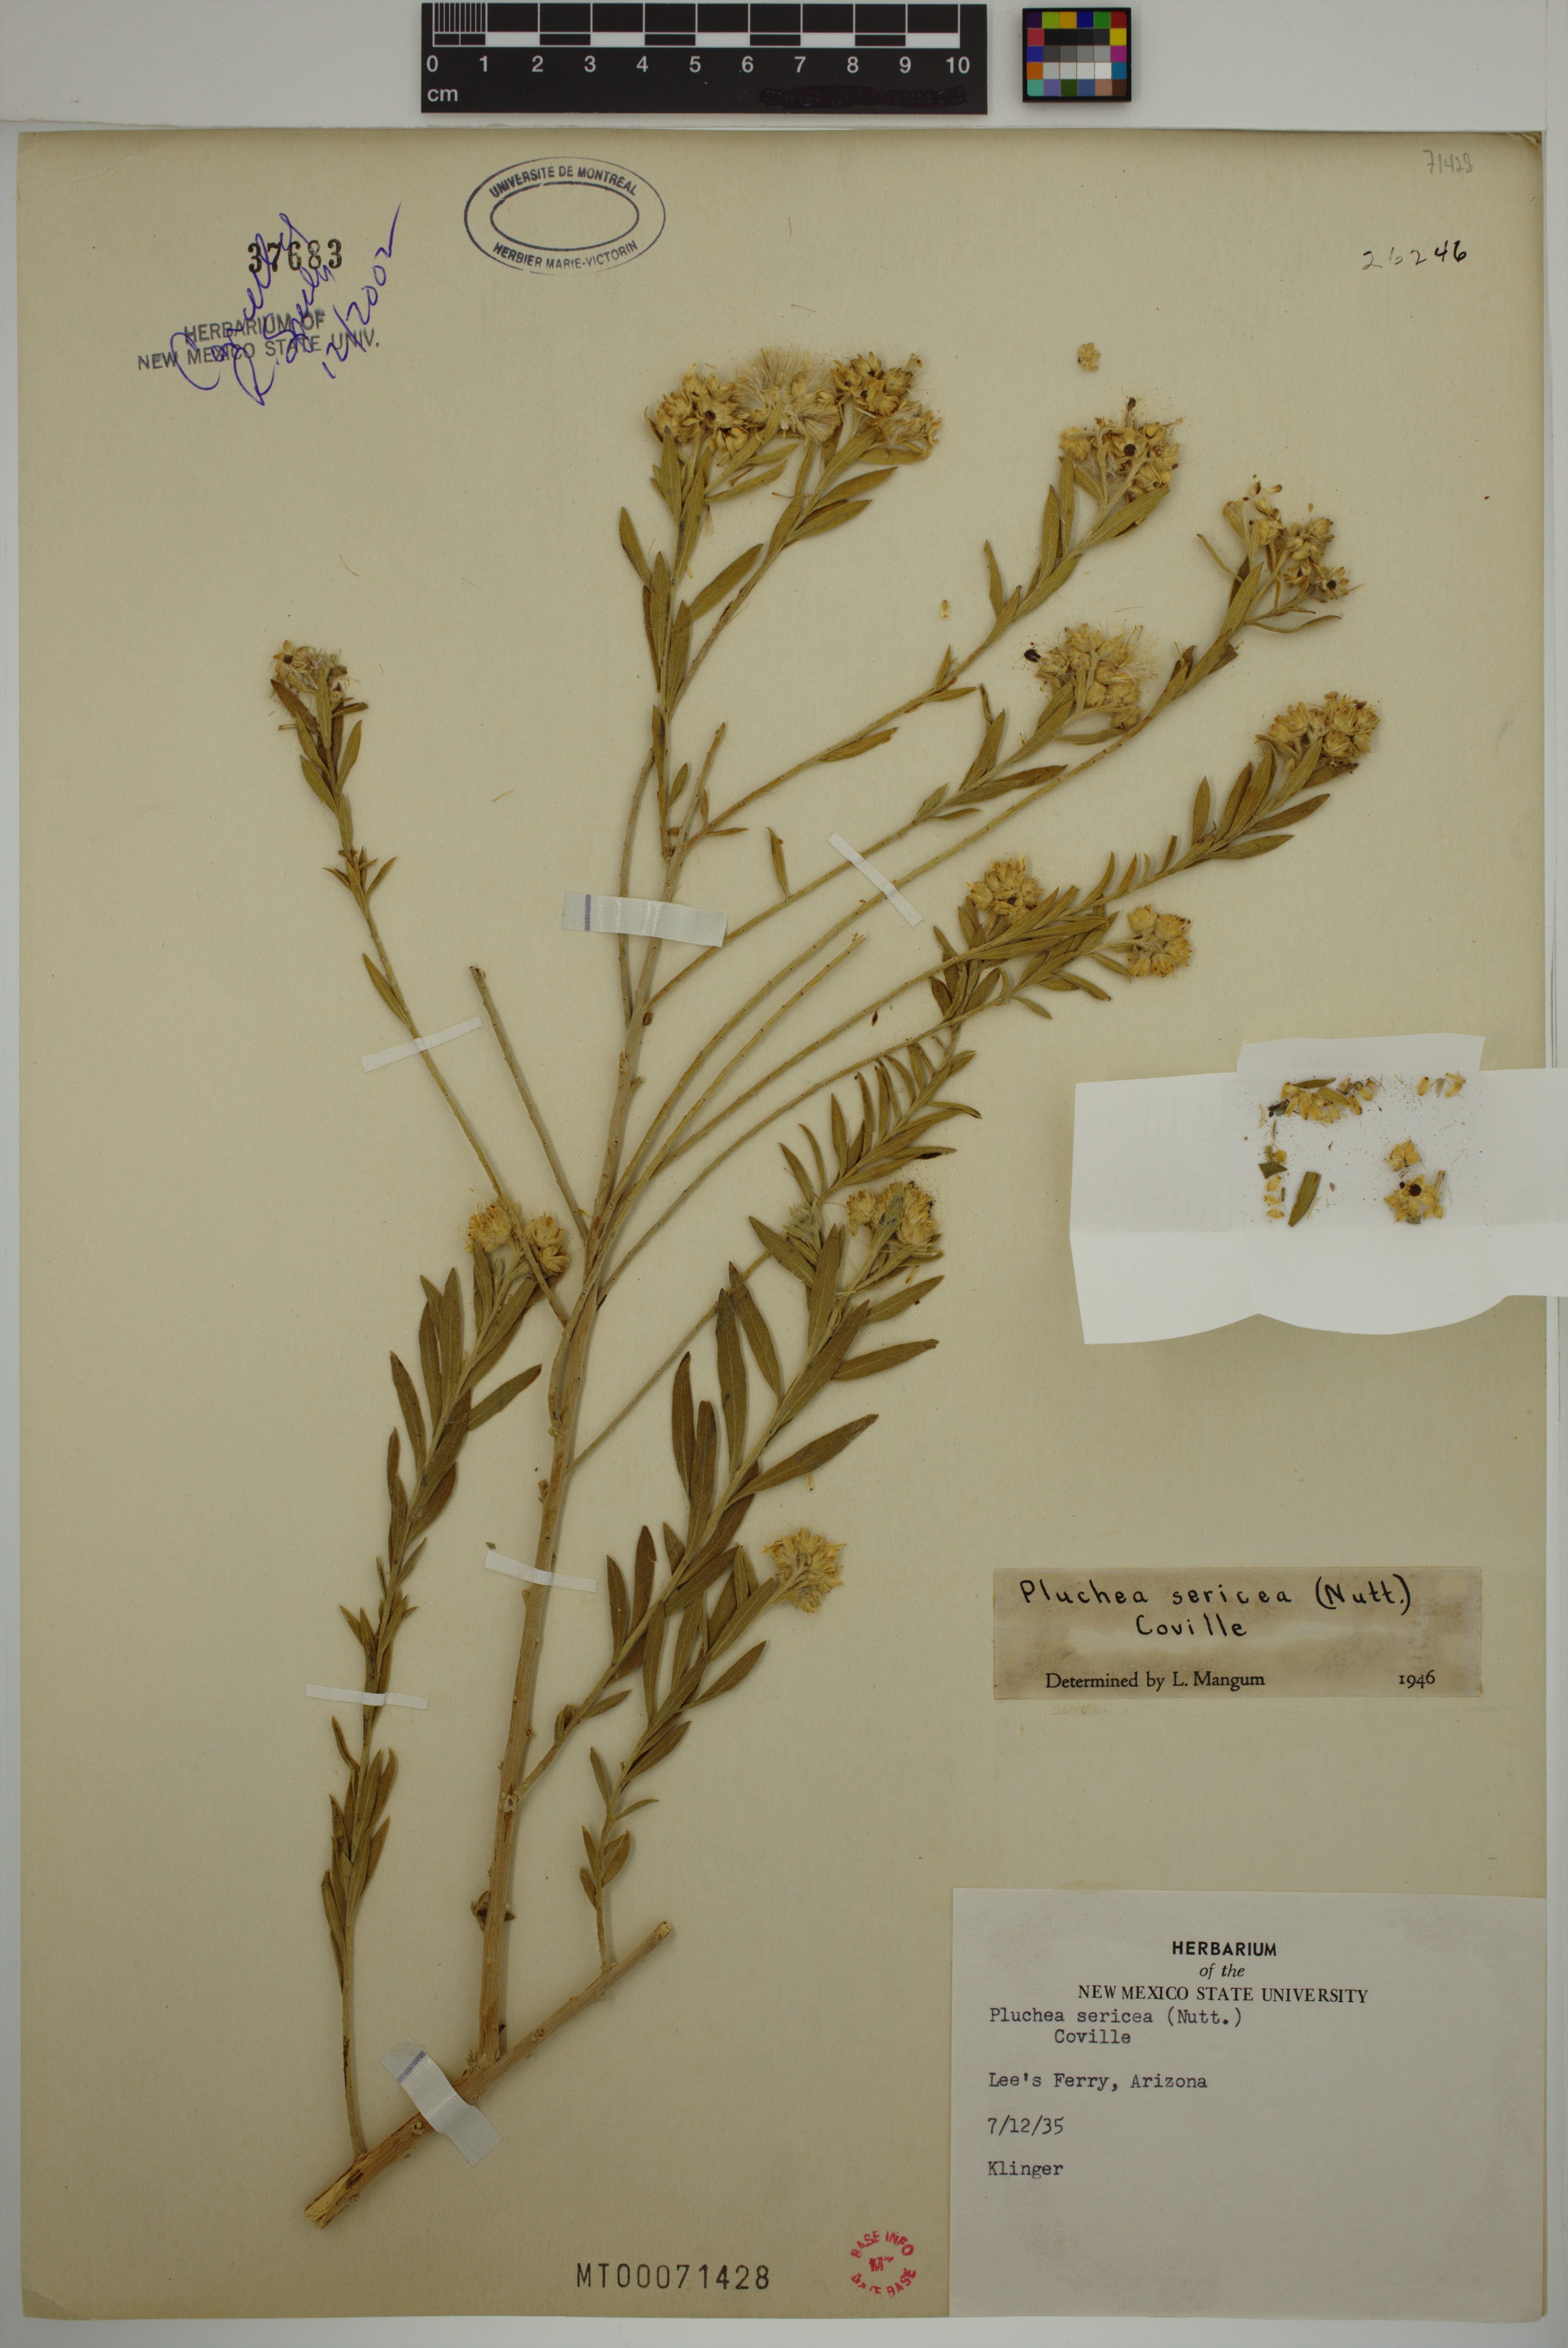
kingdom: Plantae
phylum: Tracheophyta
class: Magnoliopsida
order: Asterales
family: Asteraceae
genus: Pluchea
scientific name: Pluchea sericea
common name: Arrow-weed
